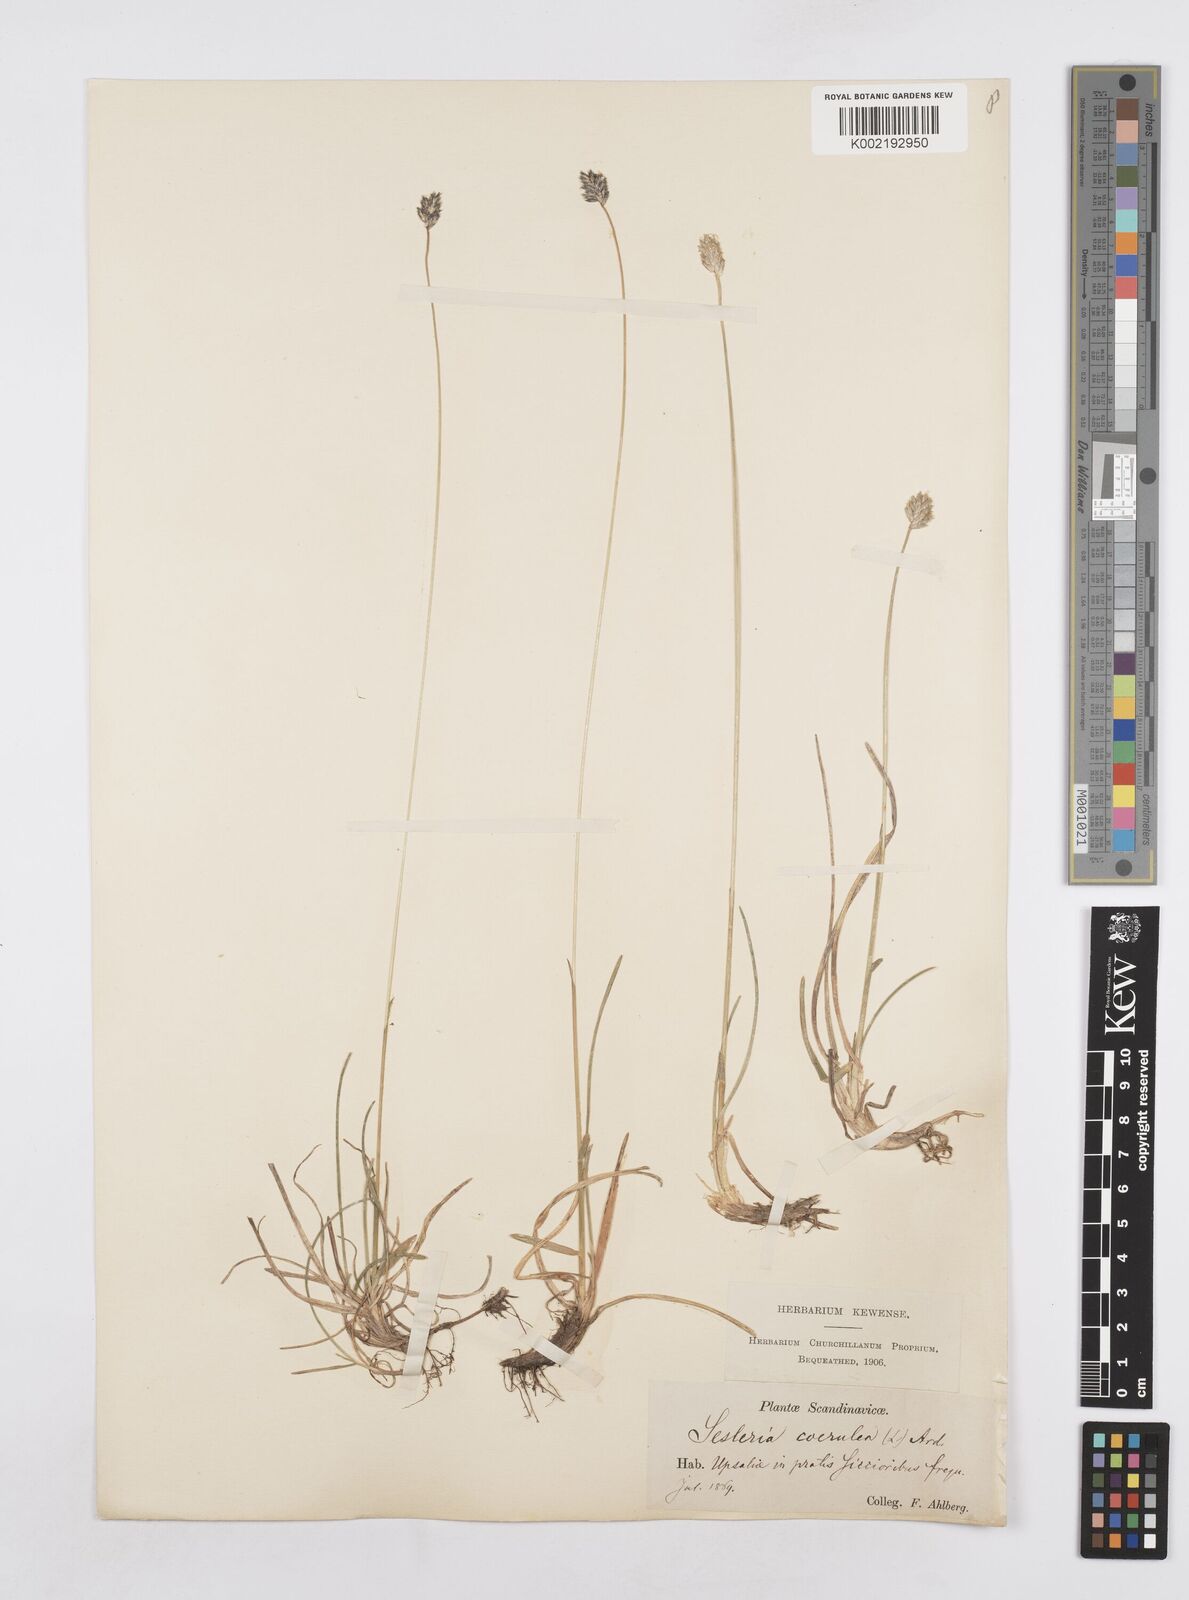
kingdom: Plantae
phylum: Tracheophyta
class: Liliopsida
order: Poales
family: Poaceae
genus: Sesleria
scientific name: Sesleria caerulea
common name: Blue moor-grass
